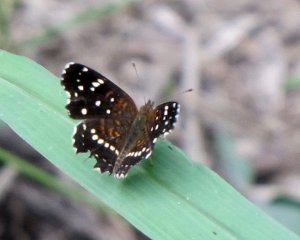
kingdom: Animalia
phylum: Arthropoda
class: Insecta
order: Lepidoptera
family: Nymphalidae
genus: Anthanassa
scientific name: Anthanassa texana
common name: Texan Crescent
